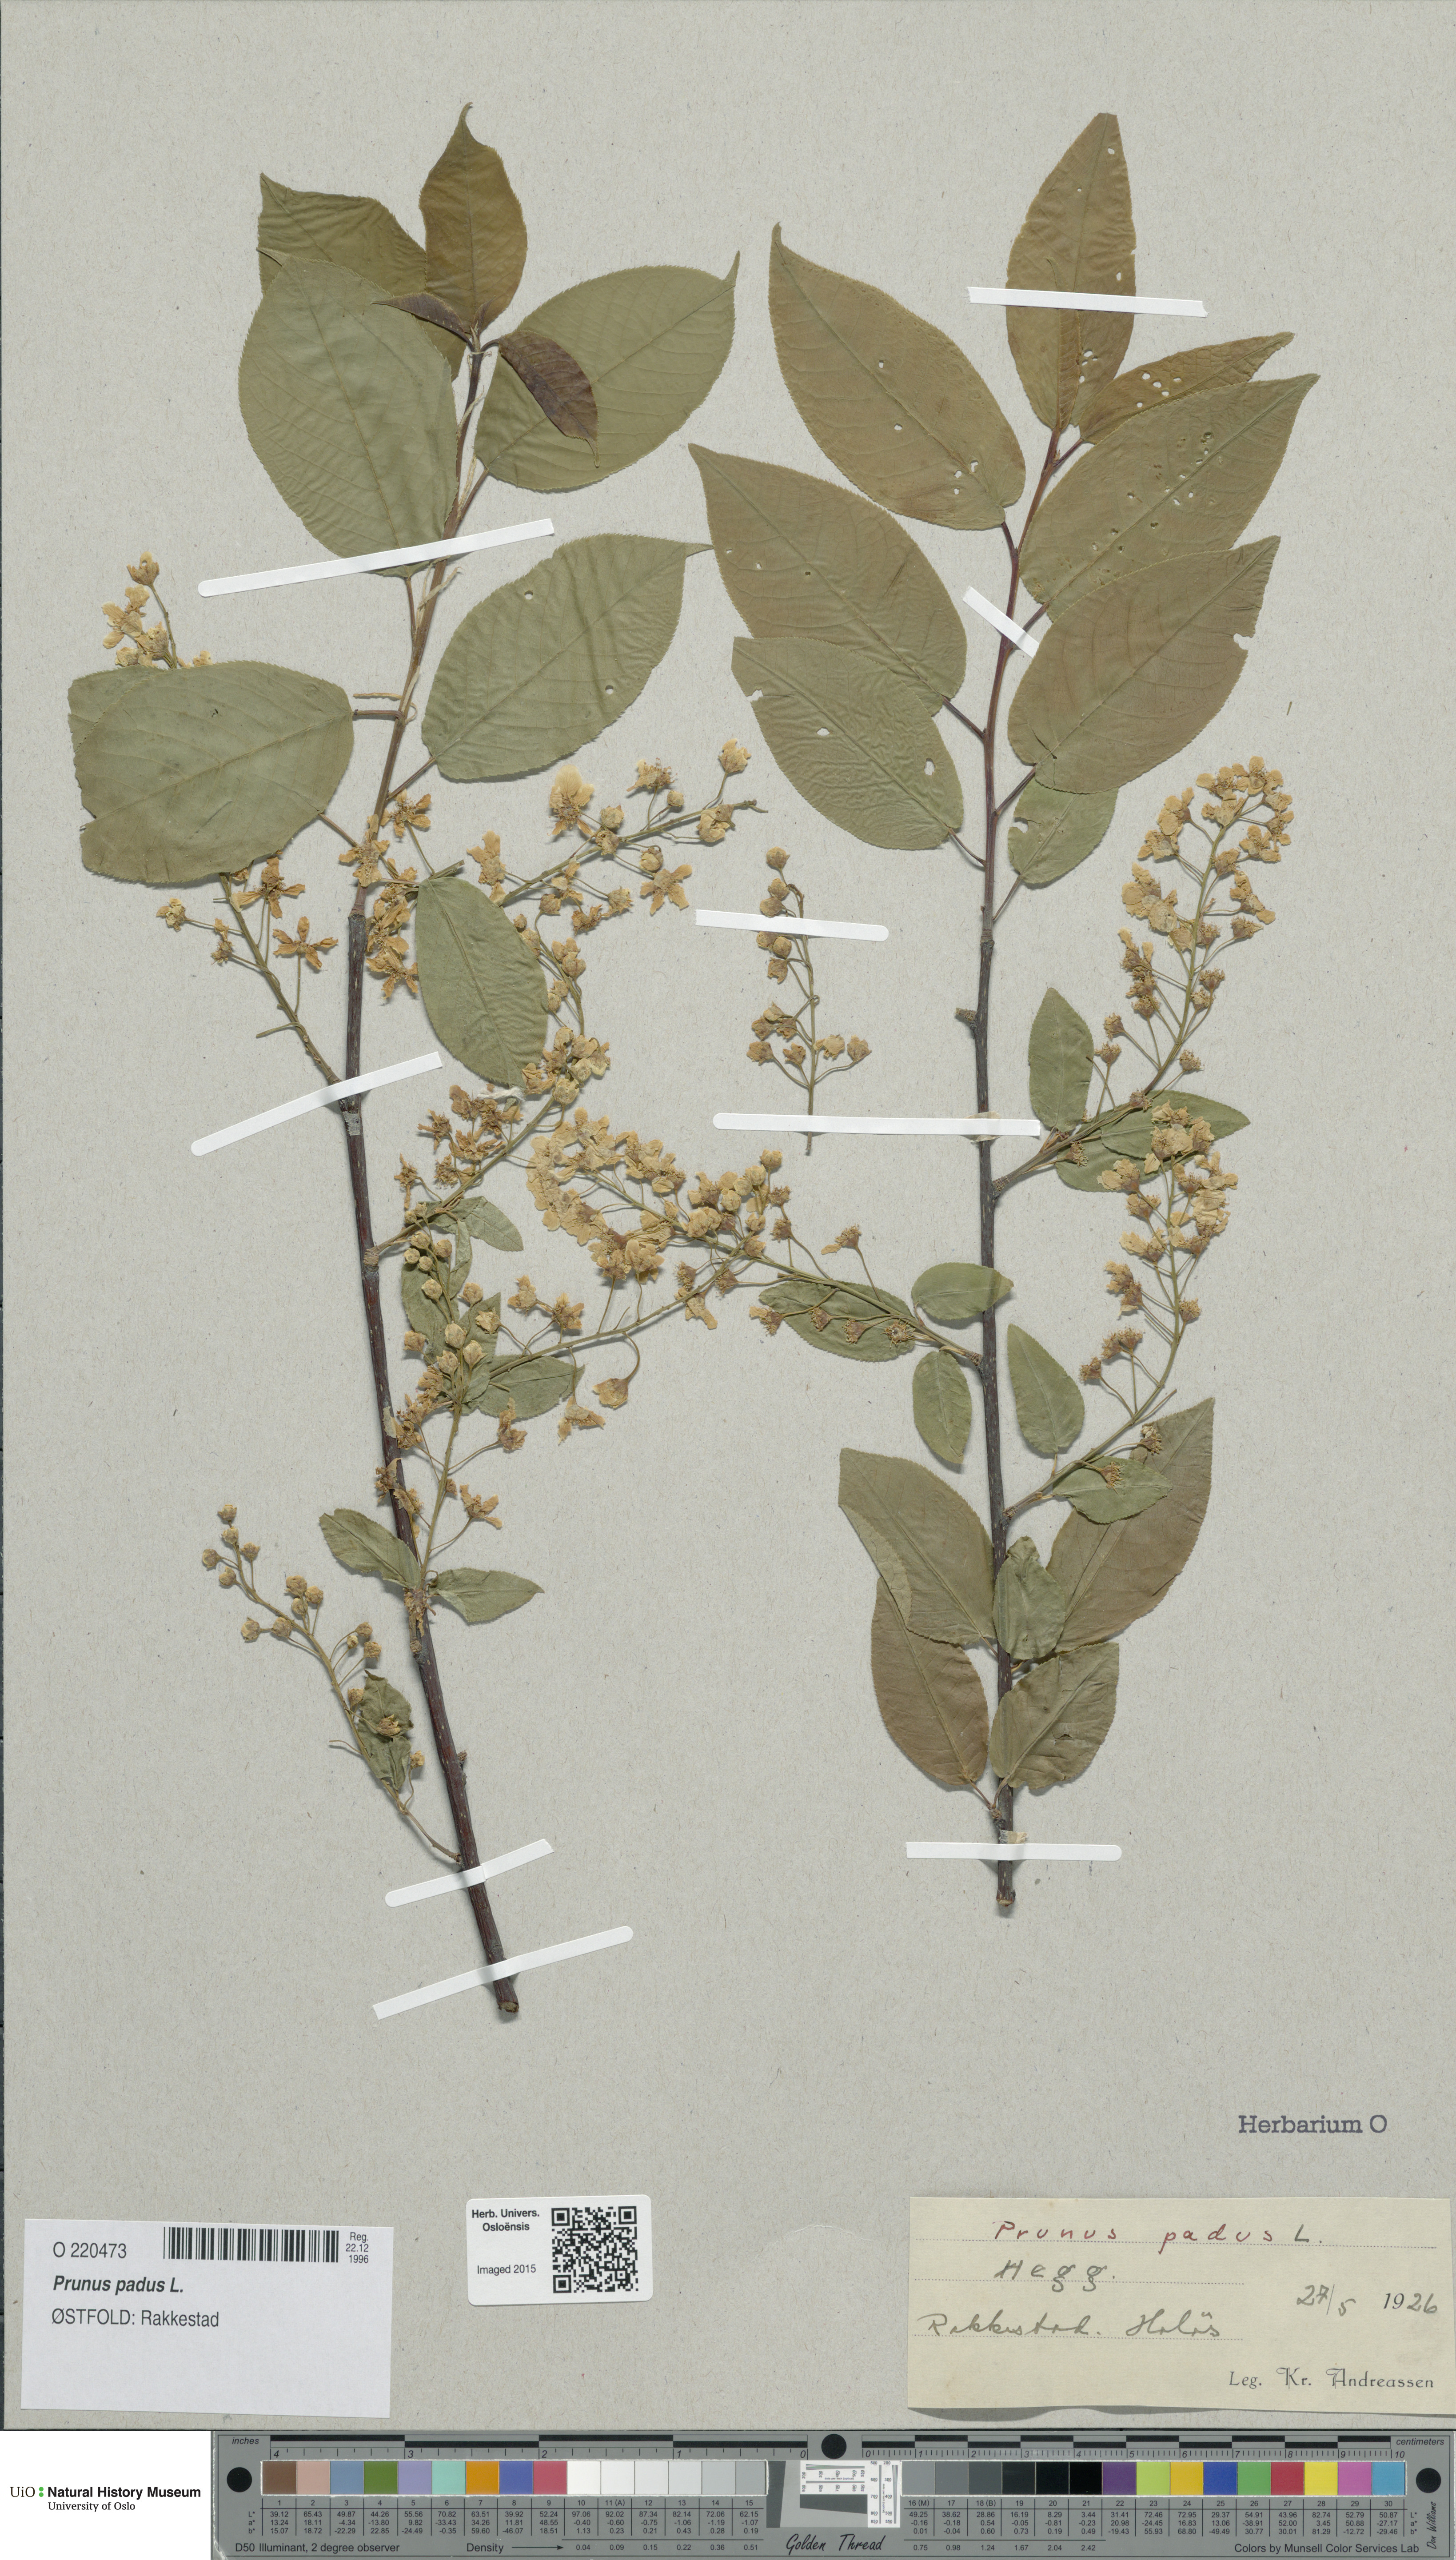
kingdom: Plantae
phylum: Tracheophyta
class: Magnoliopsida
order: Rosales
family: Rosaceae
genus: Prunus
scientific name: Prunus padus
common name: Bird cherry
